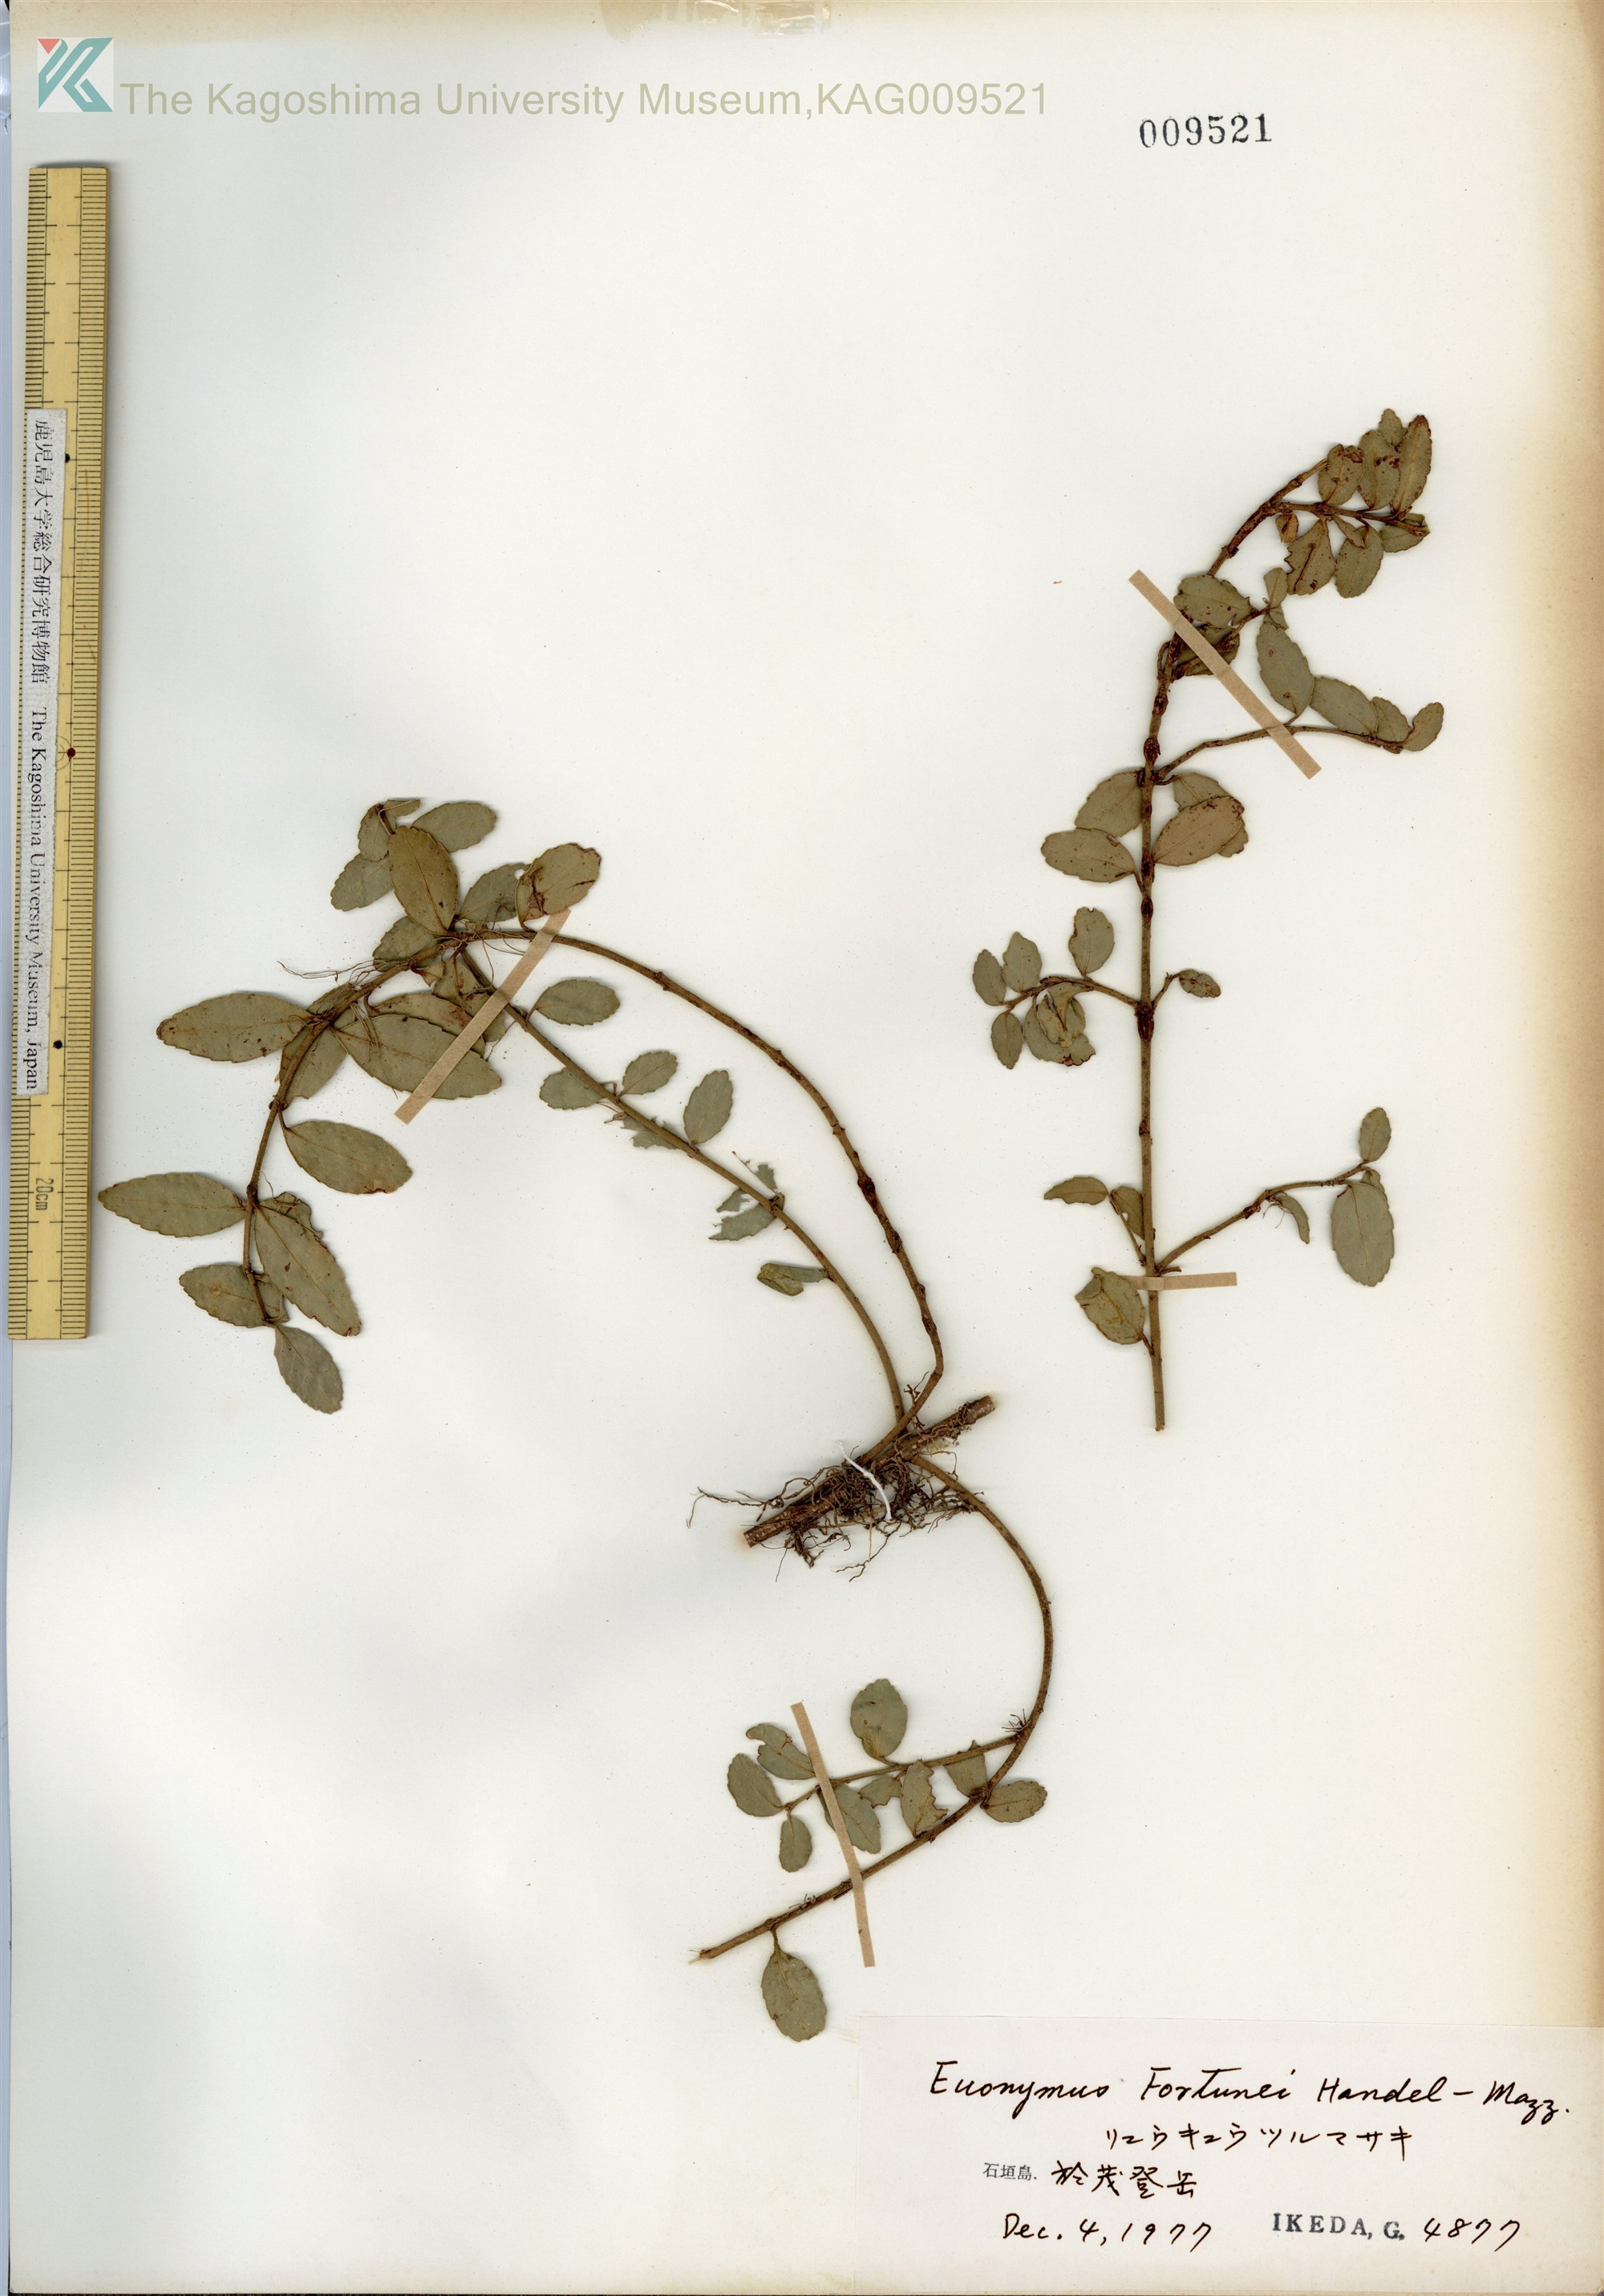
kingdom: Plantae
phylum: Tracheophyta
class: Magnoliopsida
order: Celastrales
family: Celastraceae
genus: Euonymus
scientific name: Euonymus fortunei
